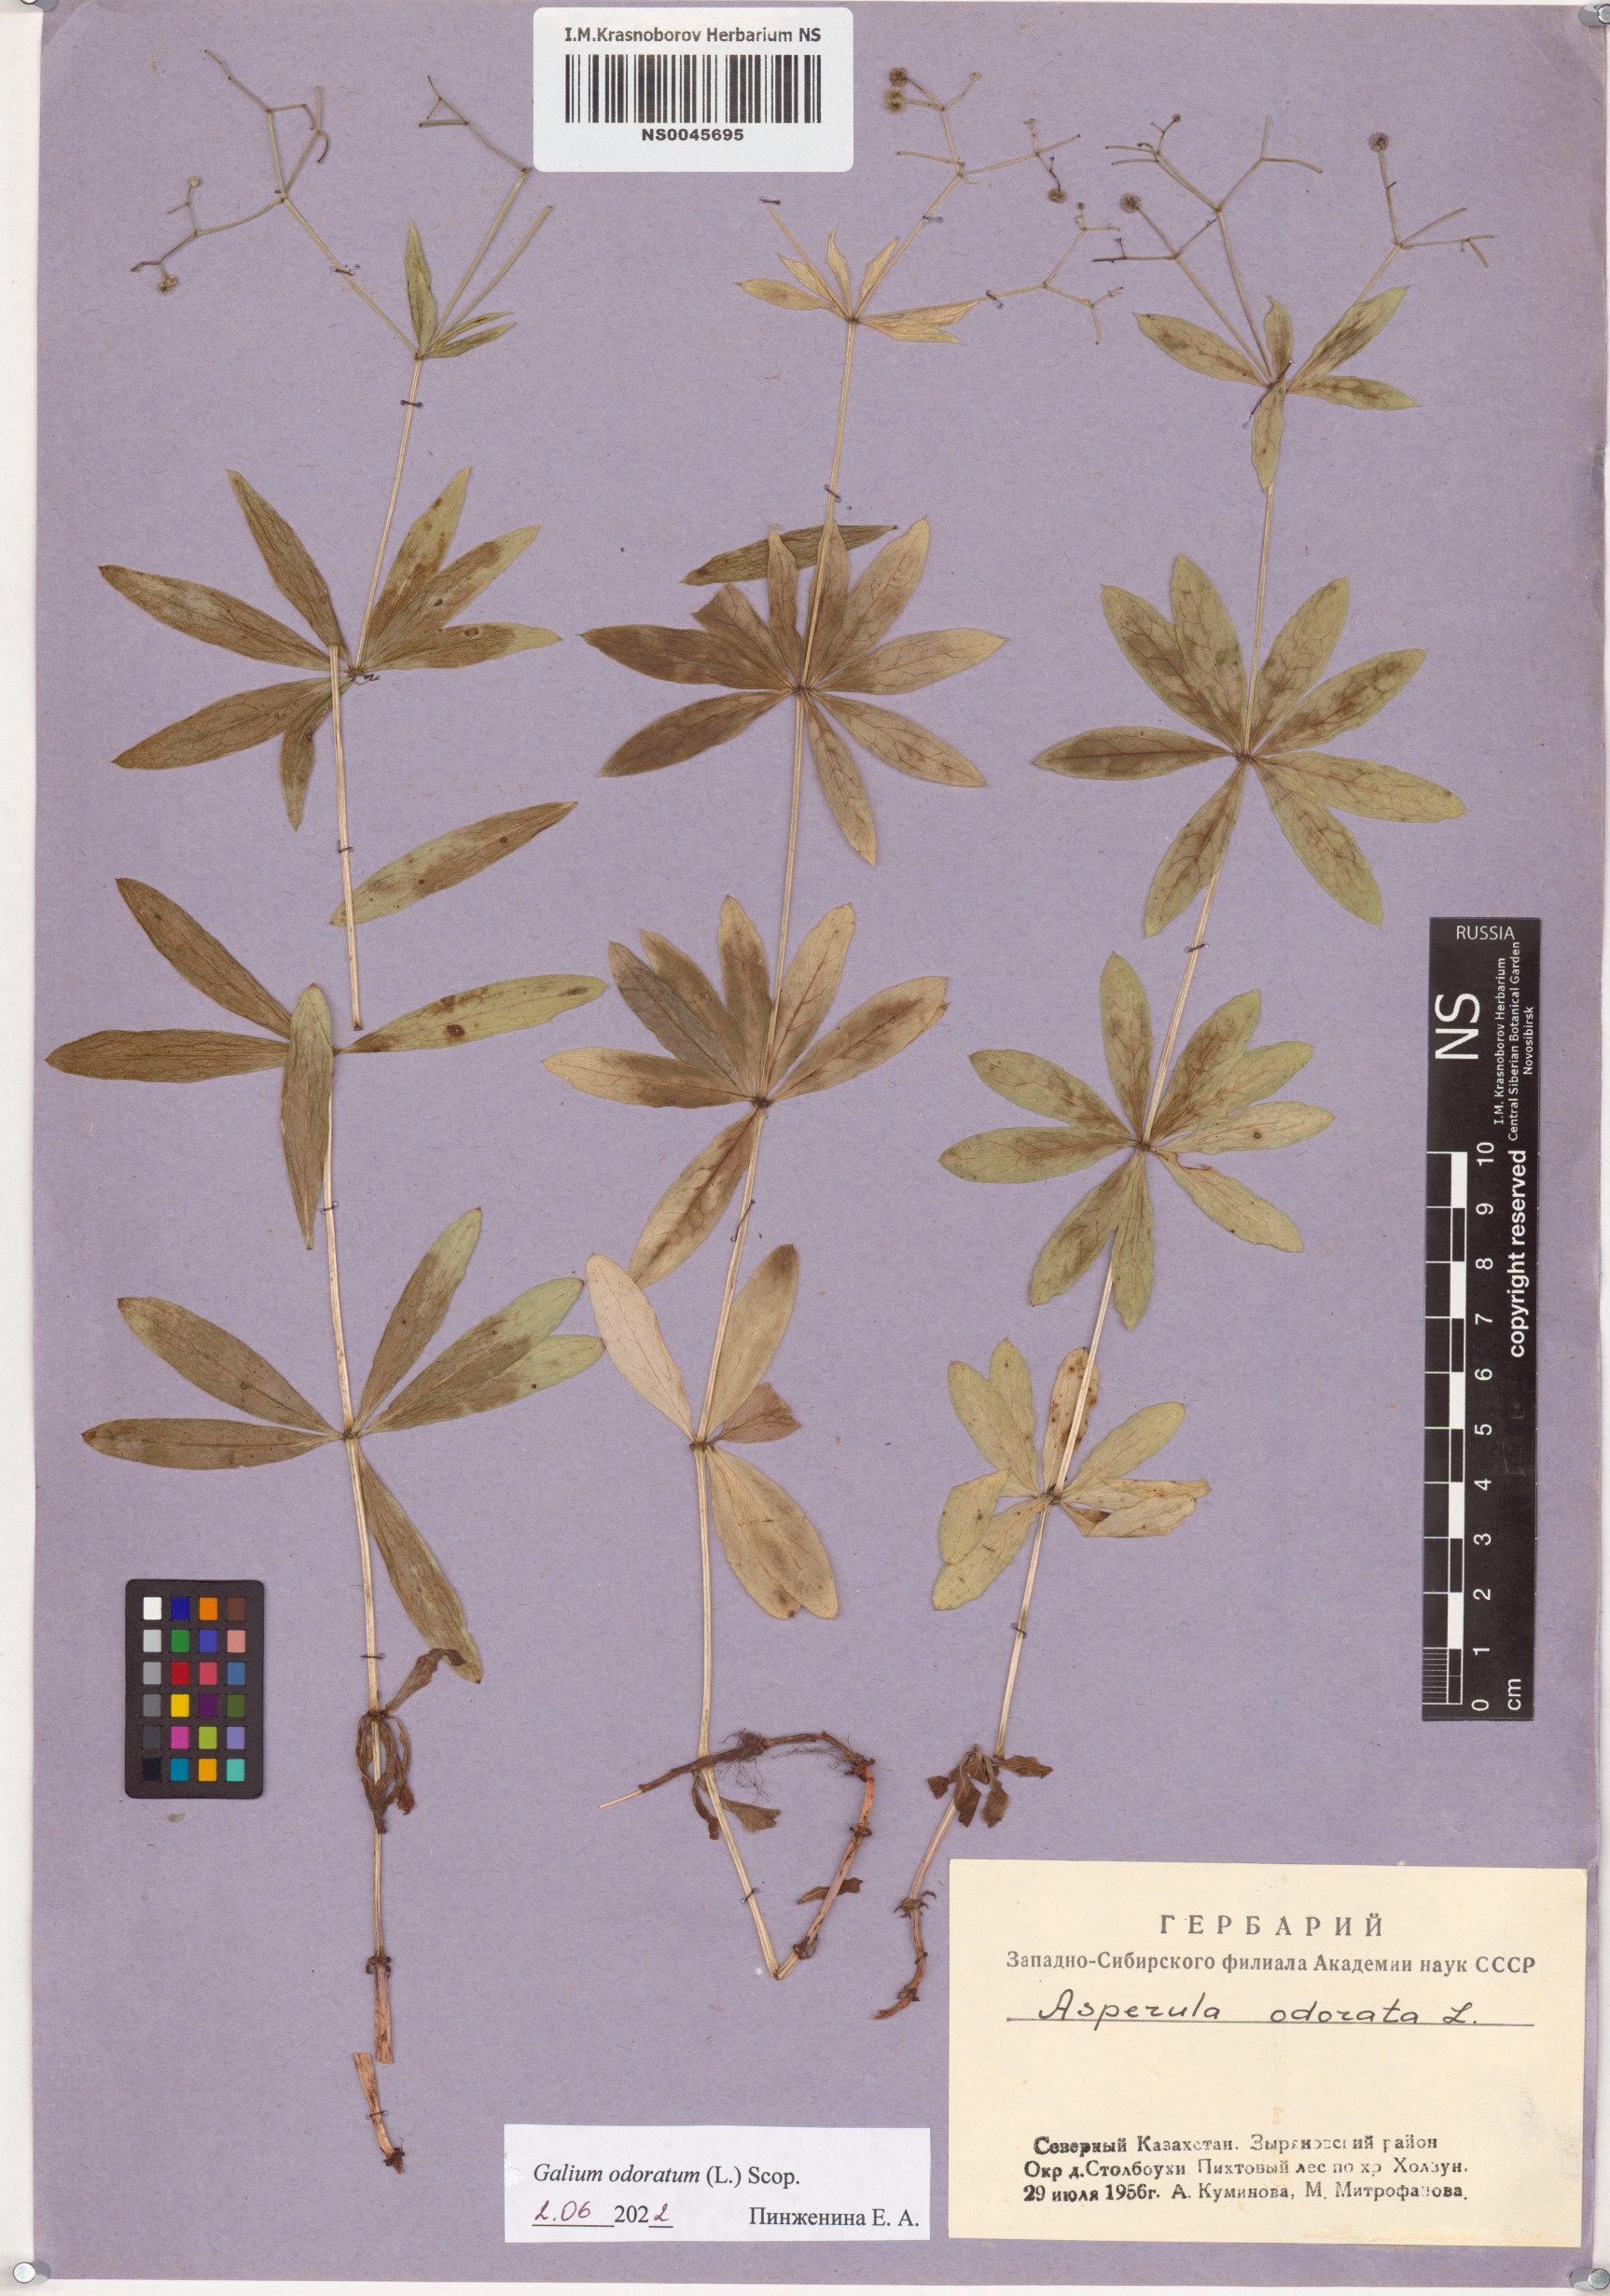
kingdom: Plantae
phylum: Tracheophyta
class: Magnoliopsida
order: Gentianales
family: Rubiaceae
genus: Galium
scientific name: Galium odoratum
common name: Sweet woodruff
